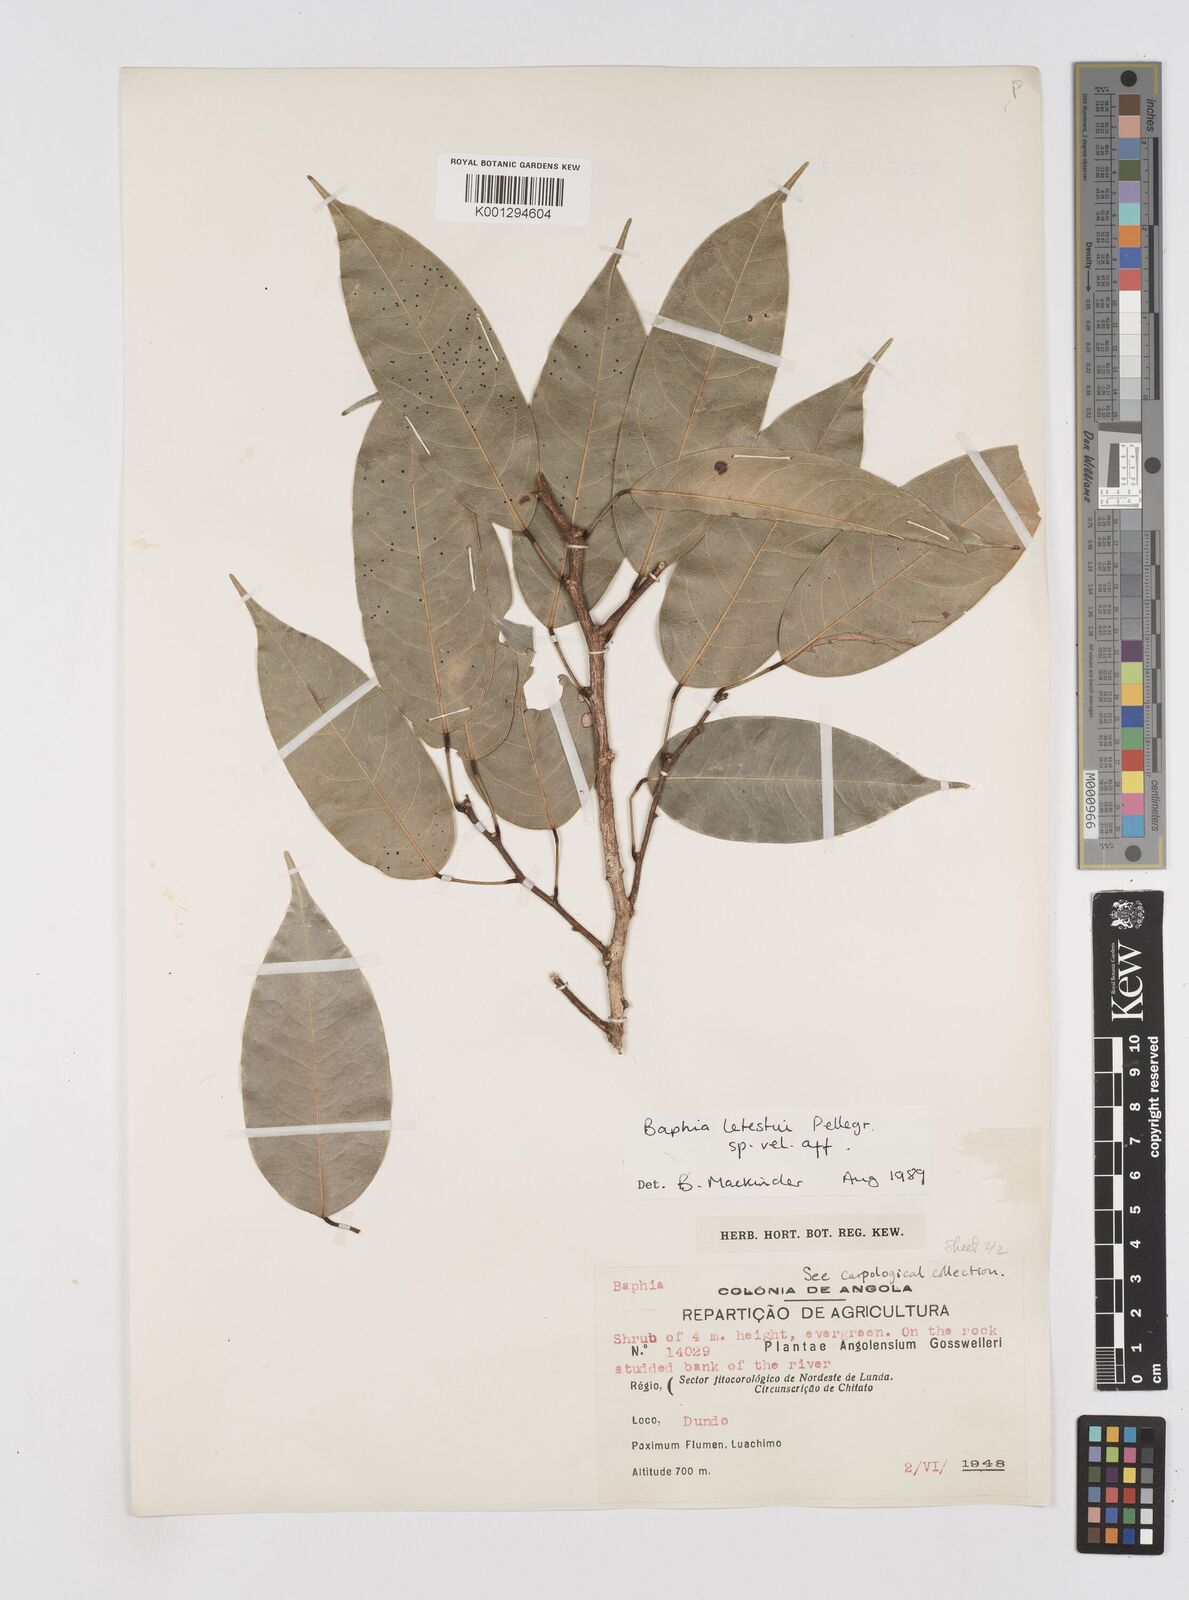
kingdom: Plantae
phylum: Tracheophyta
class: Magnoliopsida
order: Fabales
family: Fabaceae
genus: Baphia
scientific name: Baphia letestui
